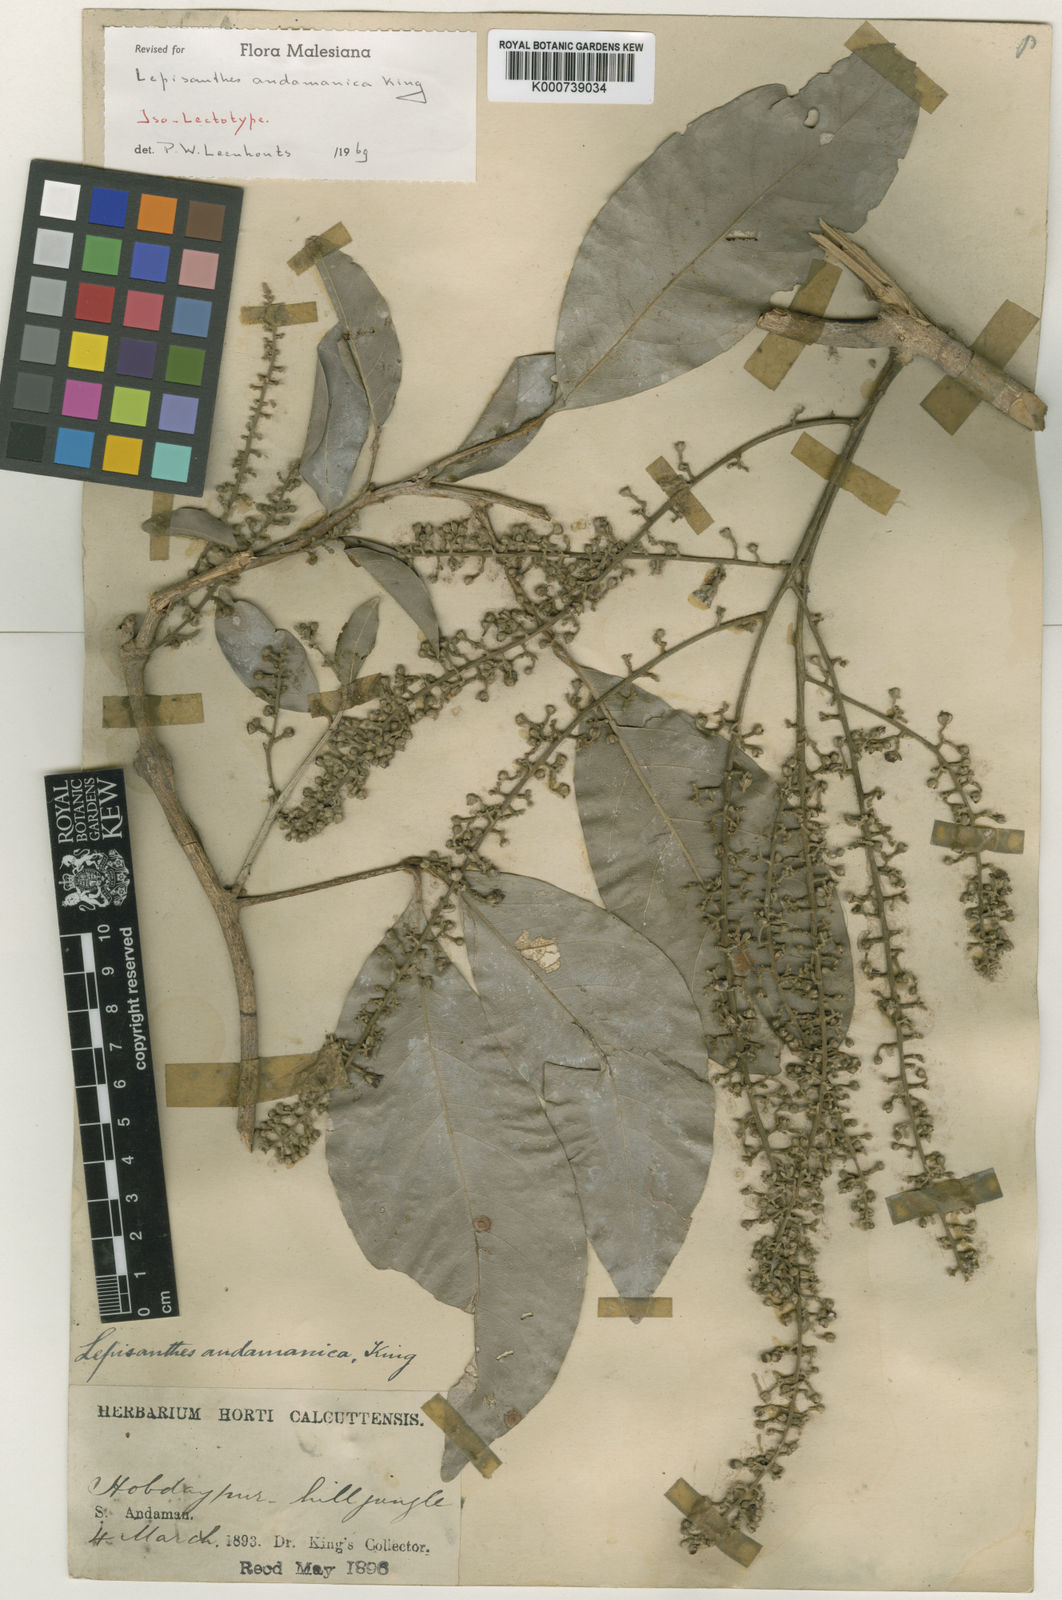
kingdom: Plantae
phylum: Tracheophyta
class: Magnoliopsida
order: Sapindales
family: Sapindaceae
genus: Lepisanthes
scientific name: Lepisanthes andamanica
